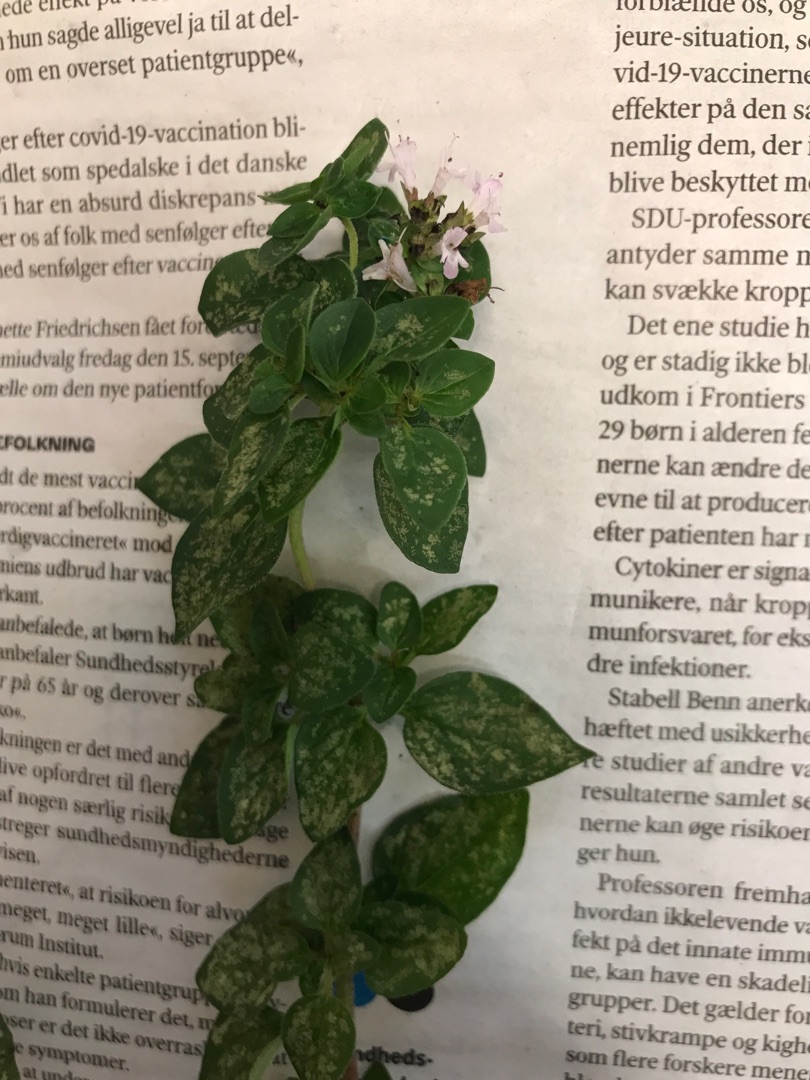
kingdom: Plantae
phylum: Tracheophyta
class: Magnoliopsida
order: Lamiales
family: Lamiaceae
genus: Origanum
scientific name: Origanum vulgare
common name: Merian
